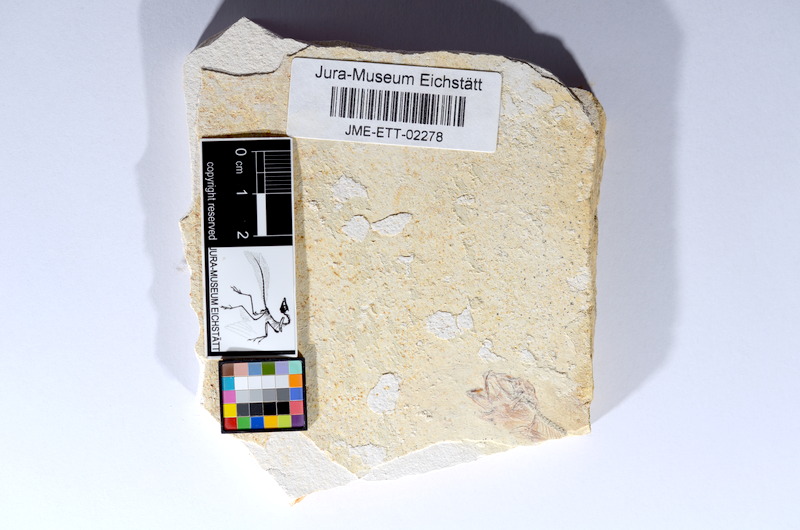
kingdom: Animalia
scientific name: Animalia
